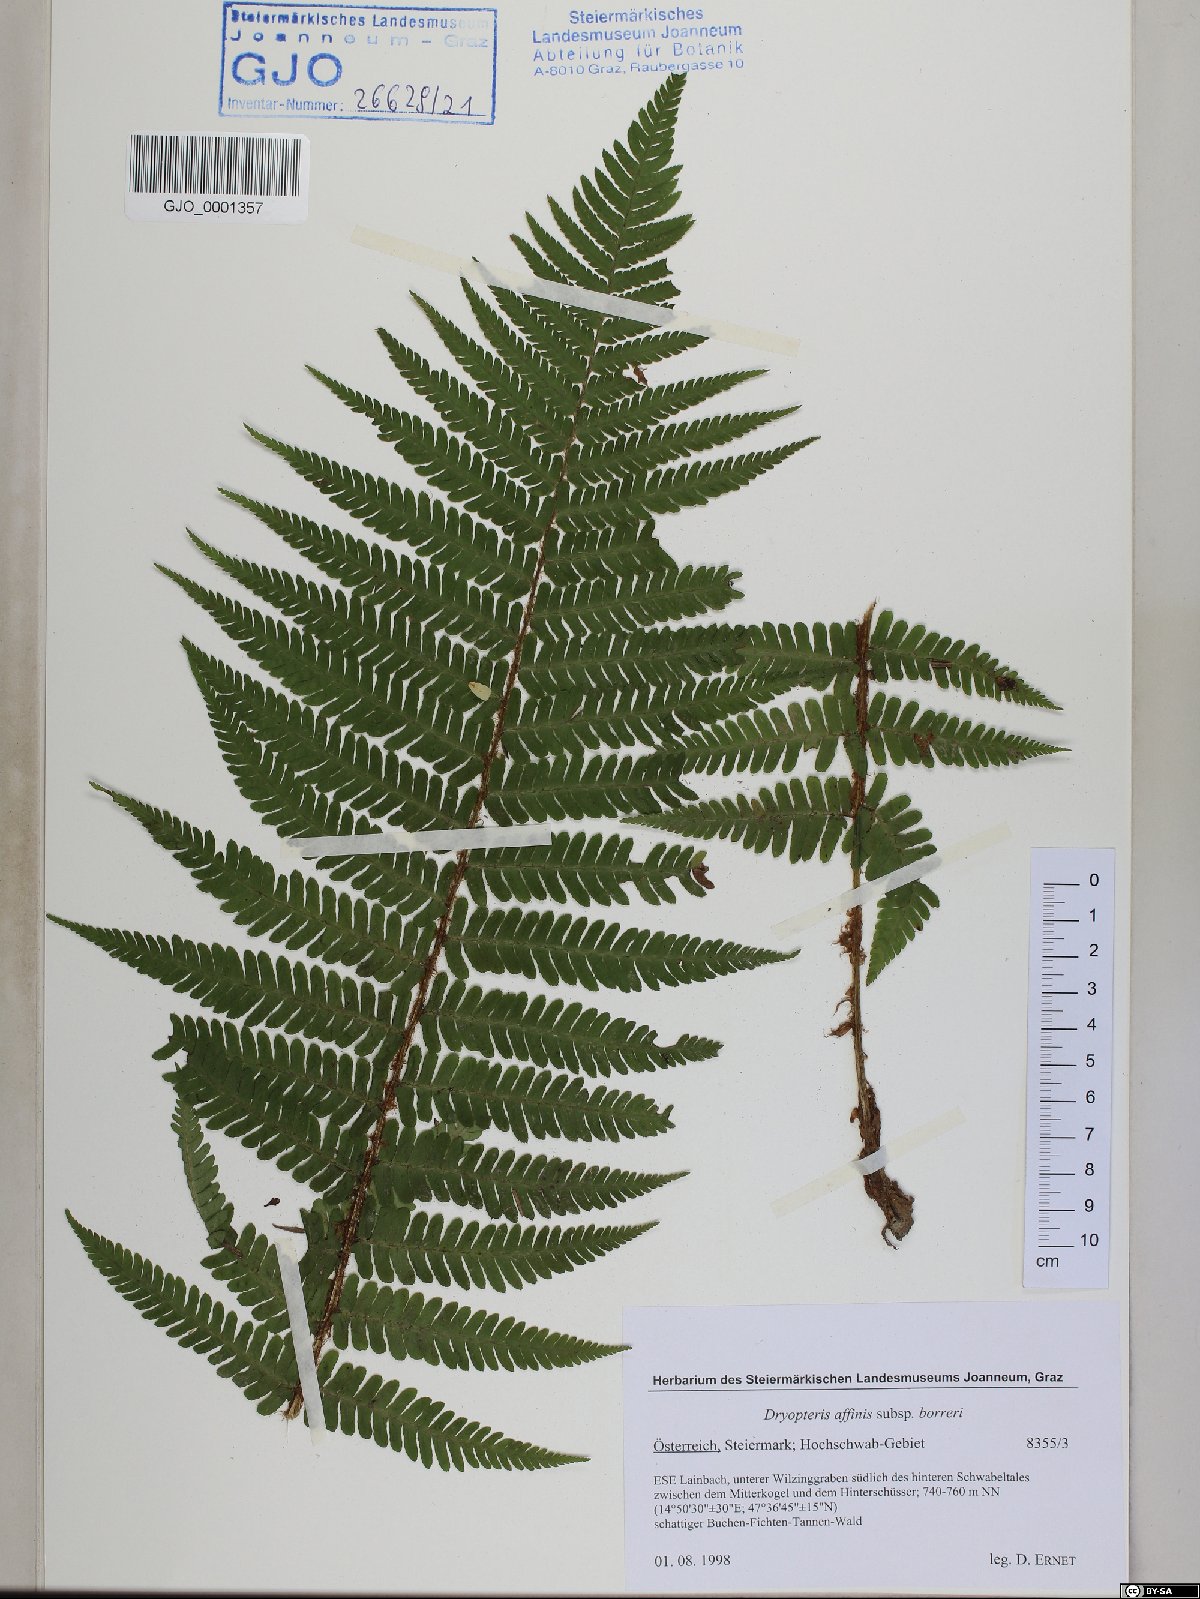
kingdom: Plantae
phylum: Tracheophyta
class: Polypodiopsida
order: Polypodiales
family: Dryopteridaceae
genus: Dryopteris
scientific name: Dryopteris borreri
